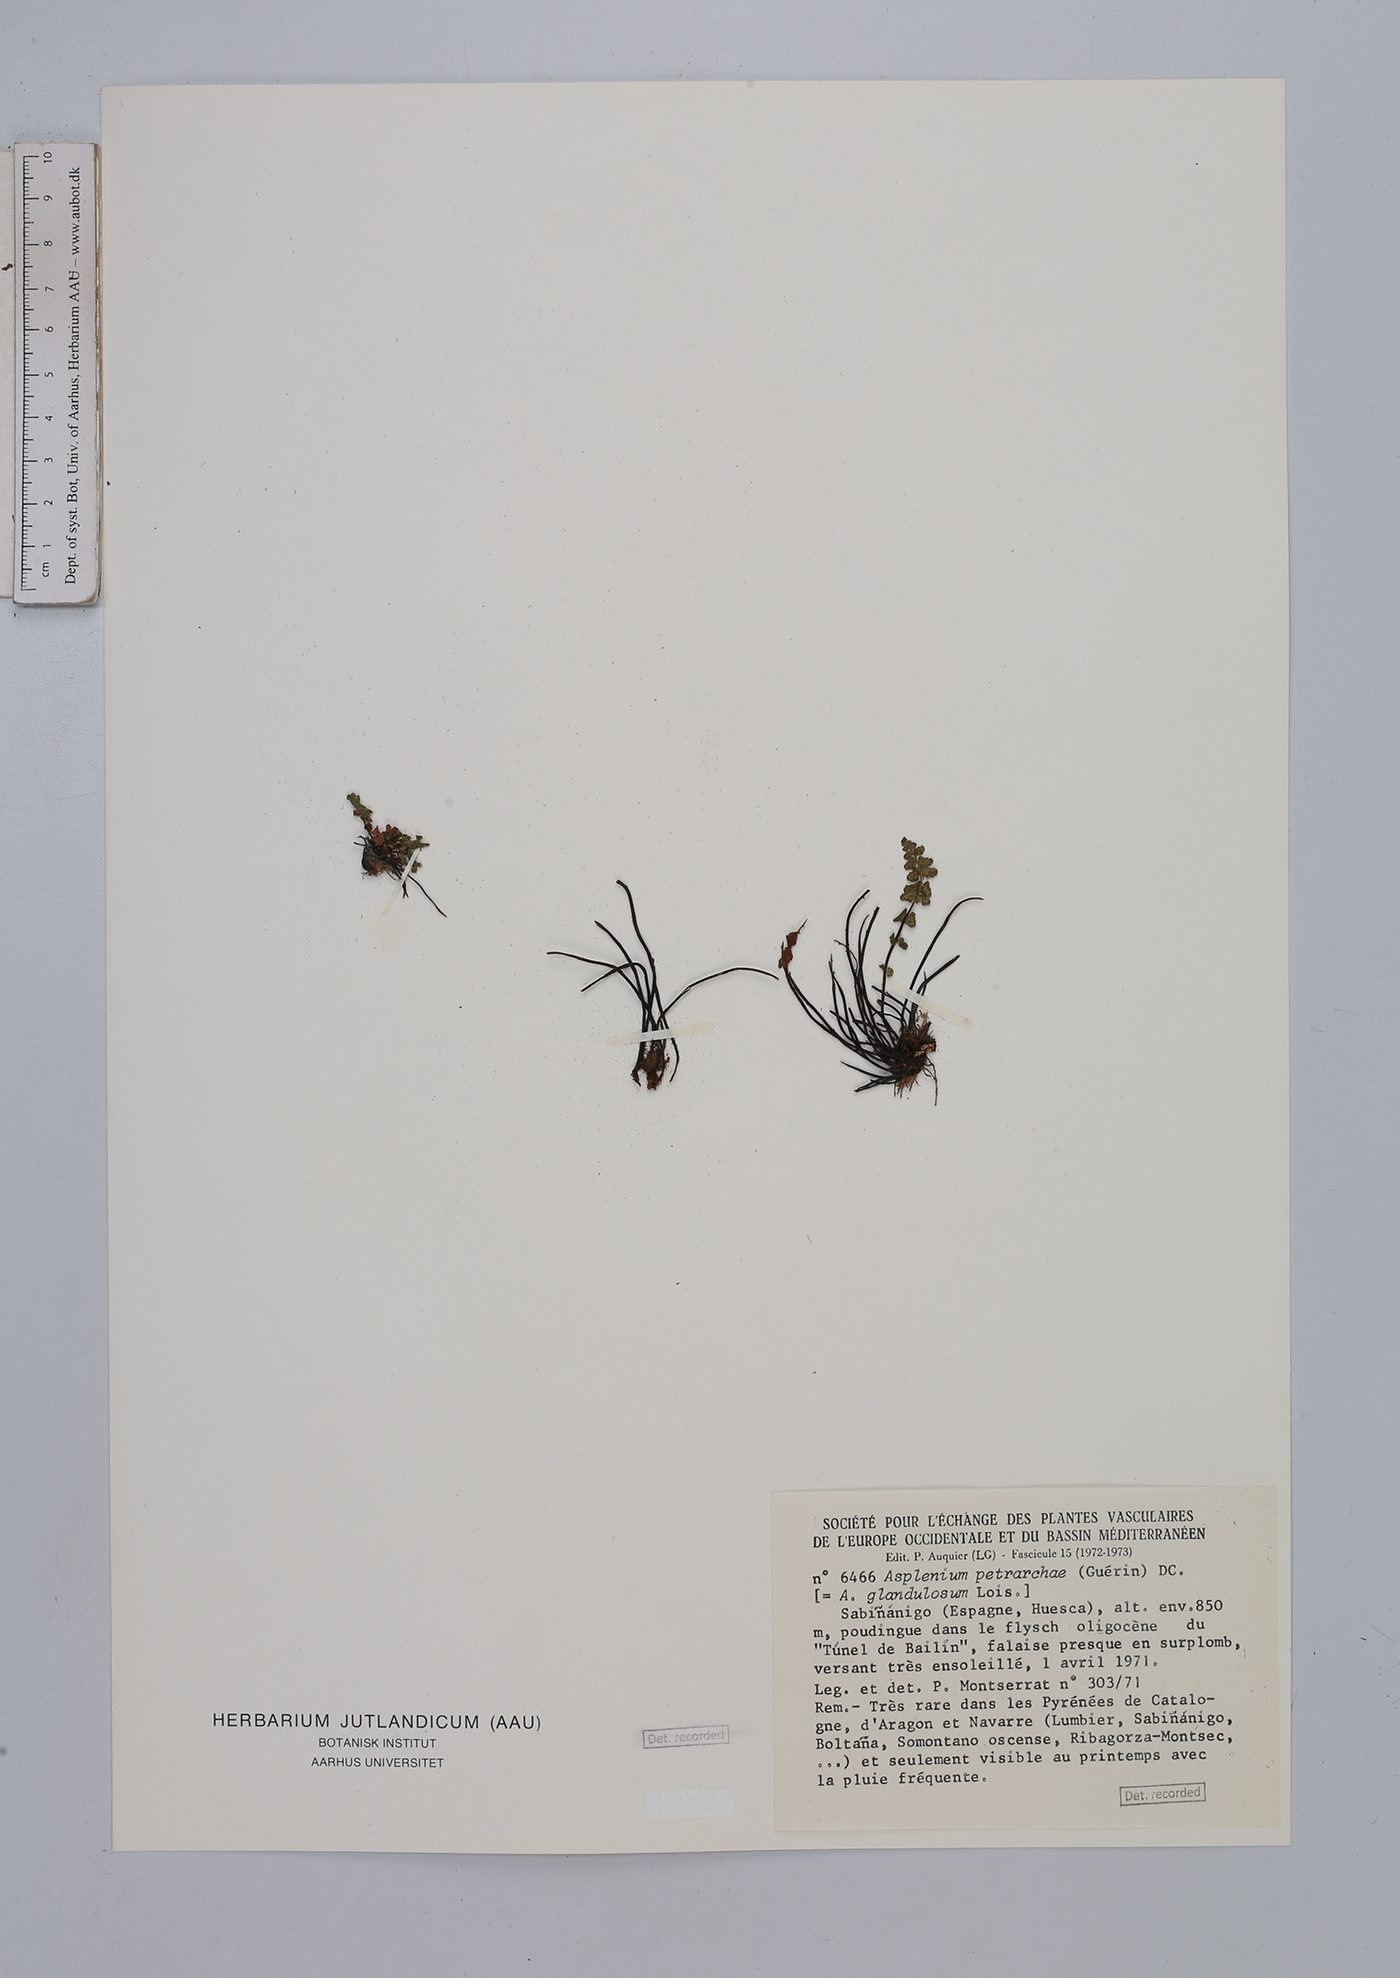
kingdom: Plantae
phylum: Tracheophyta
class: Polypodiopsida
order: Polypodiales
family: Aspleniaceae
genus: Asplenium
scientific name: Asplenium petrarchae
